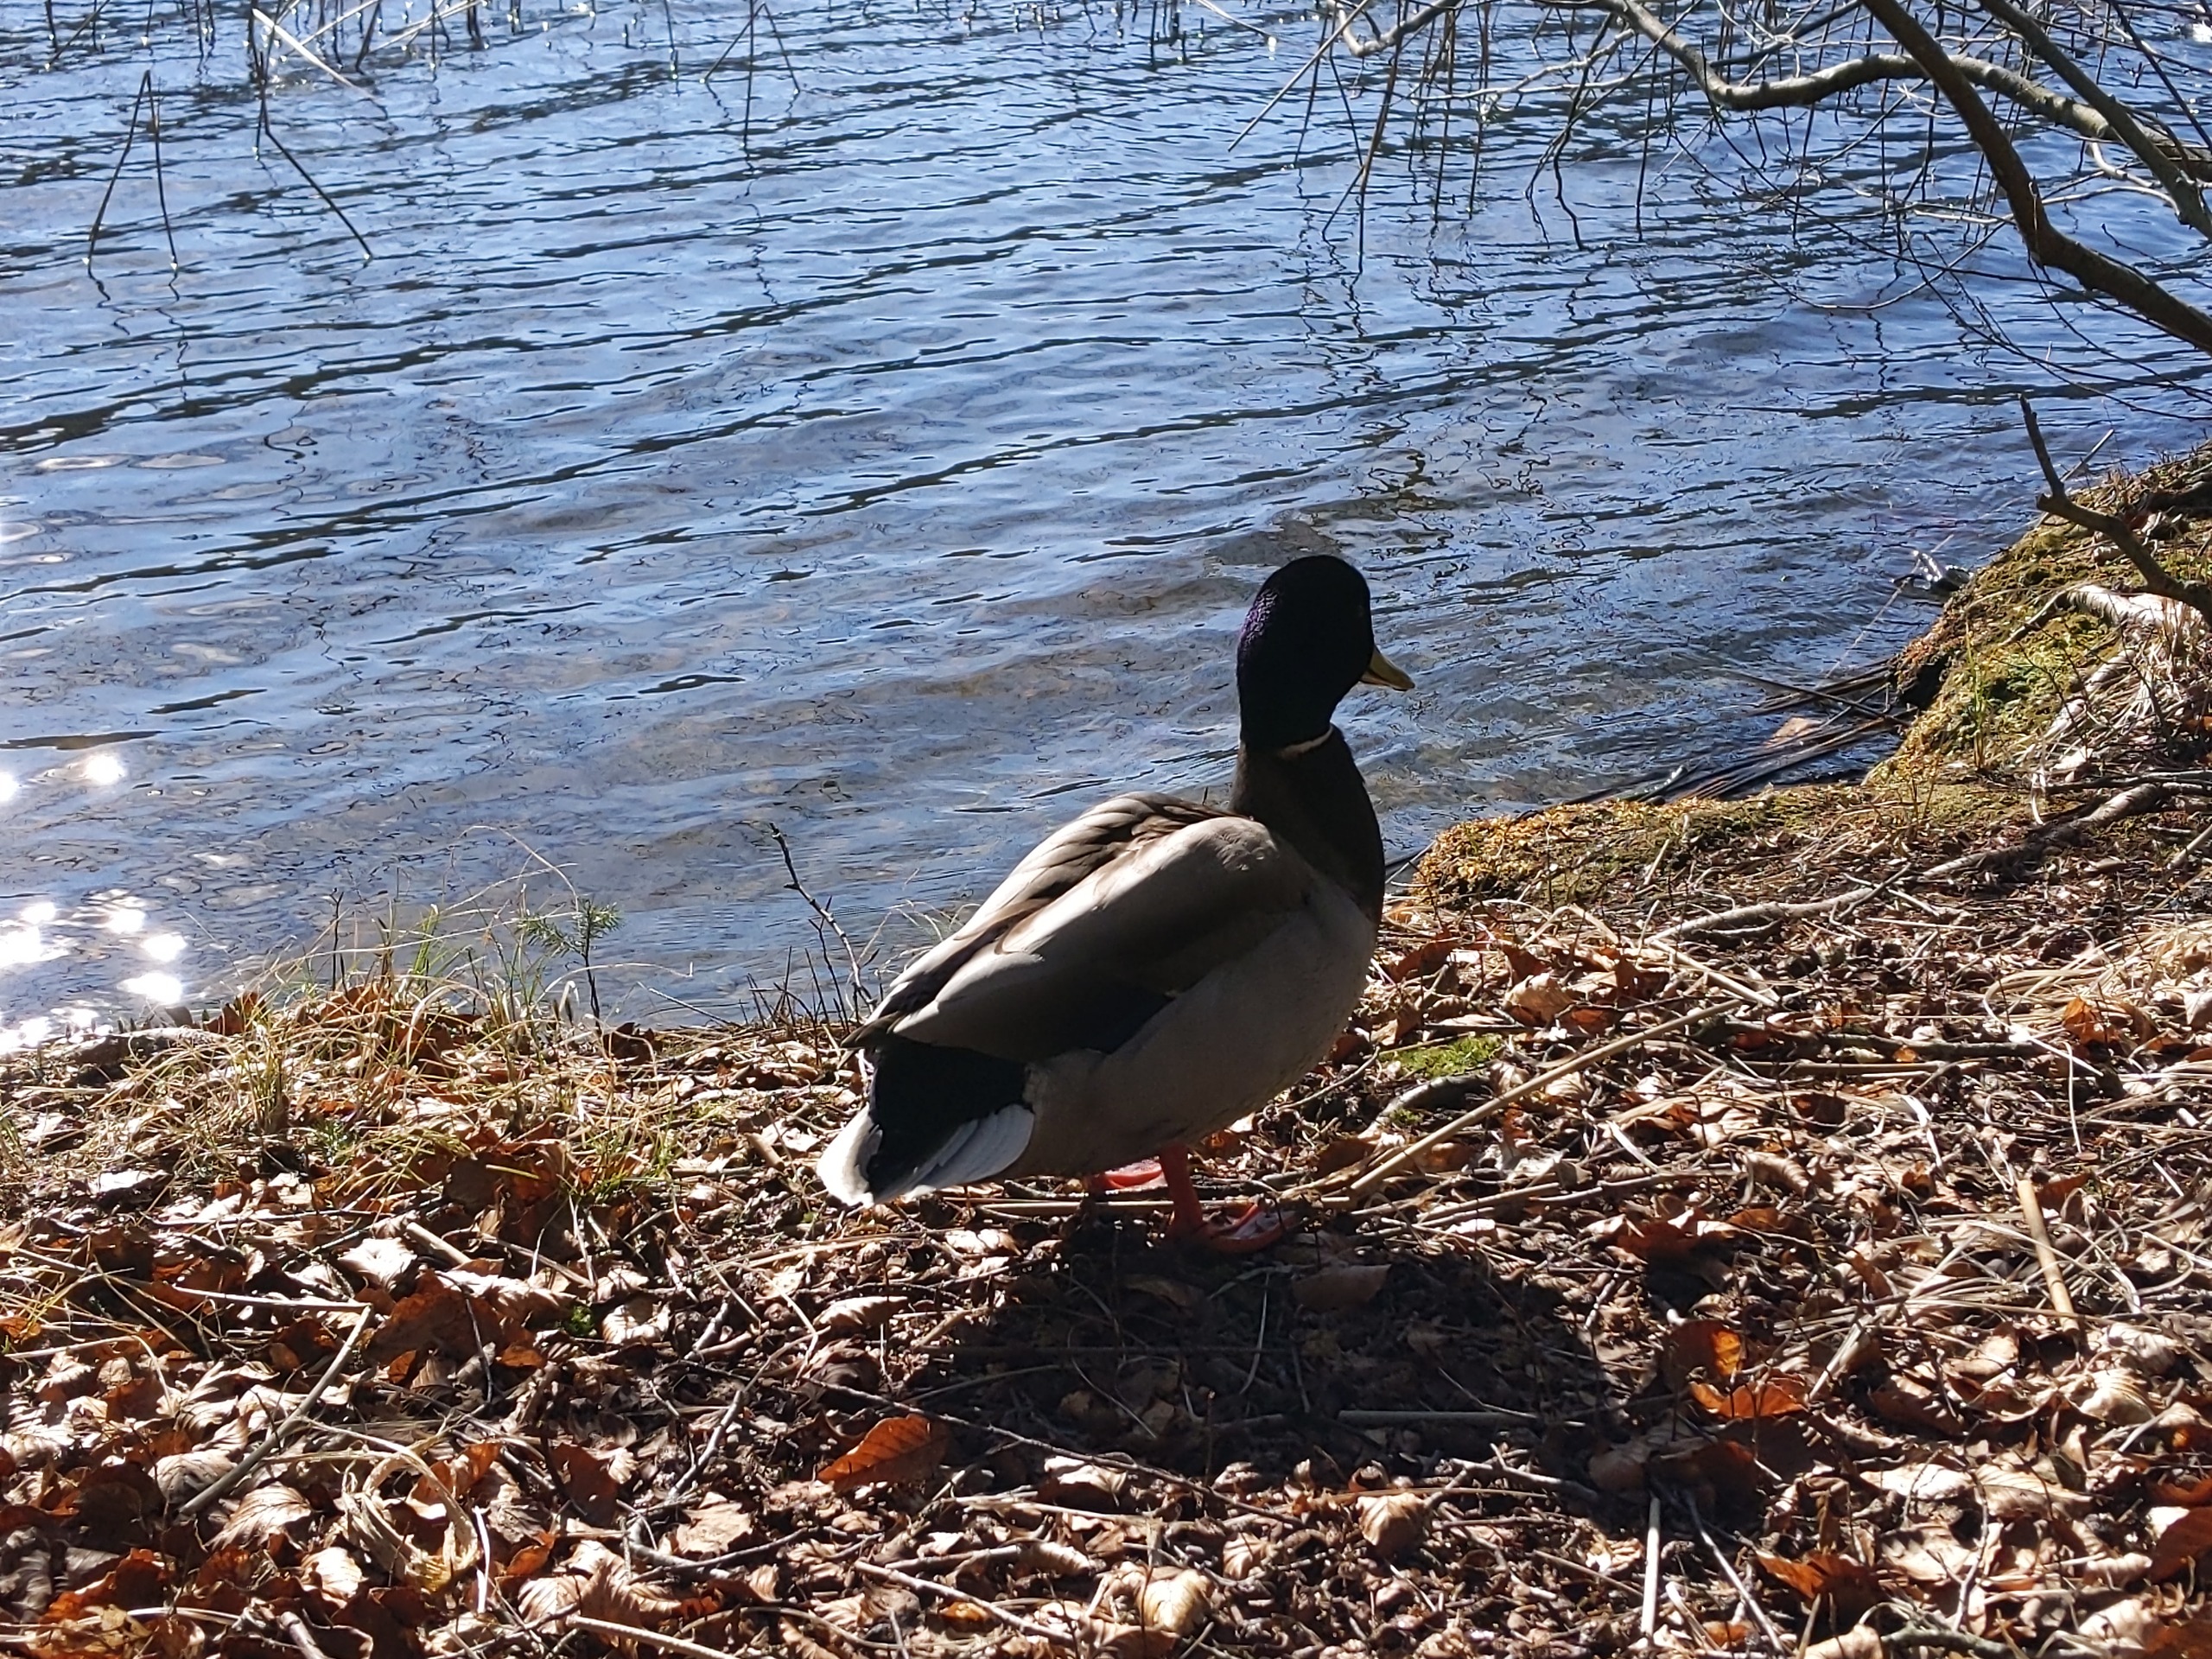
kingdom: Animalia
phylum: Chordata
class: Aves
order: Anseriformes
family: Anatidae
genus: Anas
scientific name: Anas platyrhynchos
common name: Gråand
